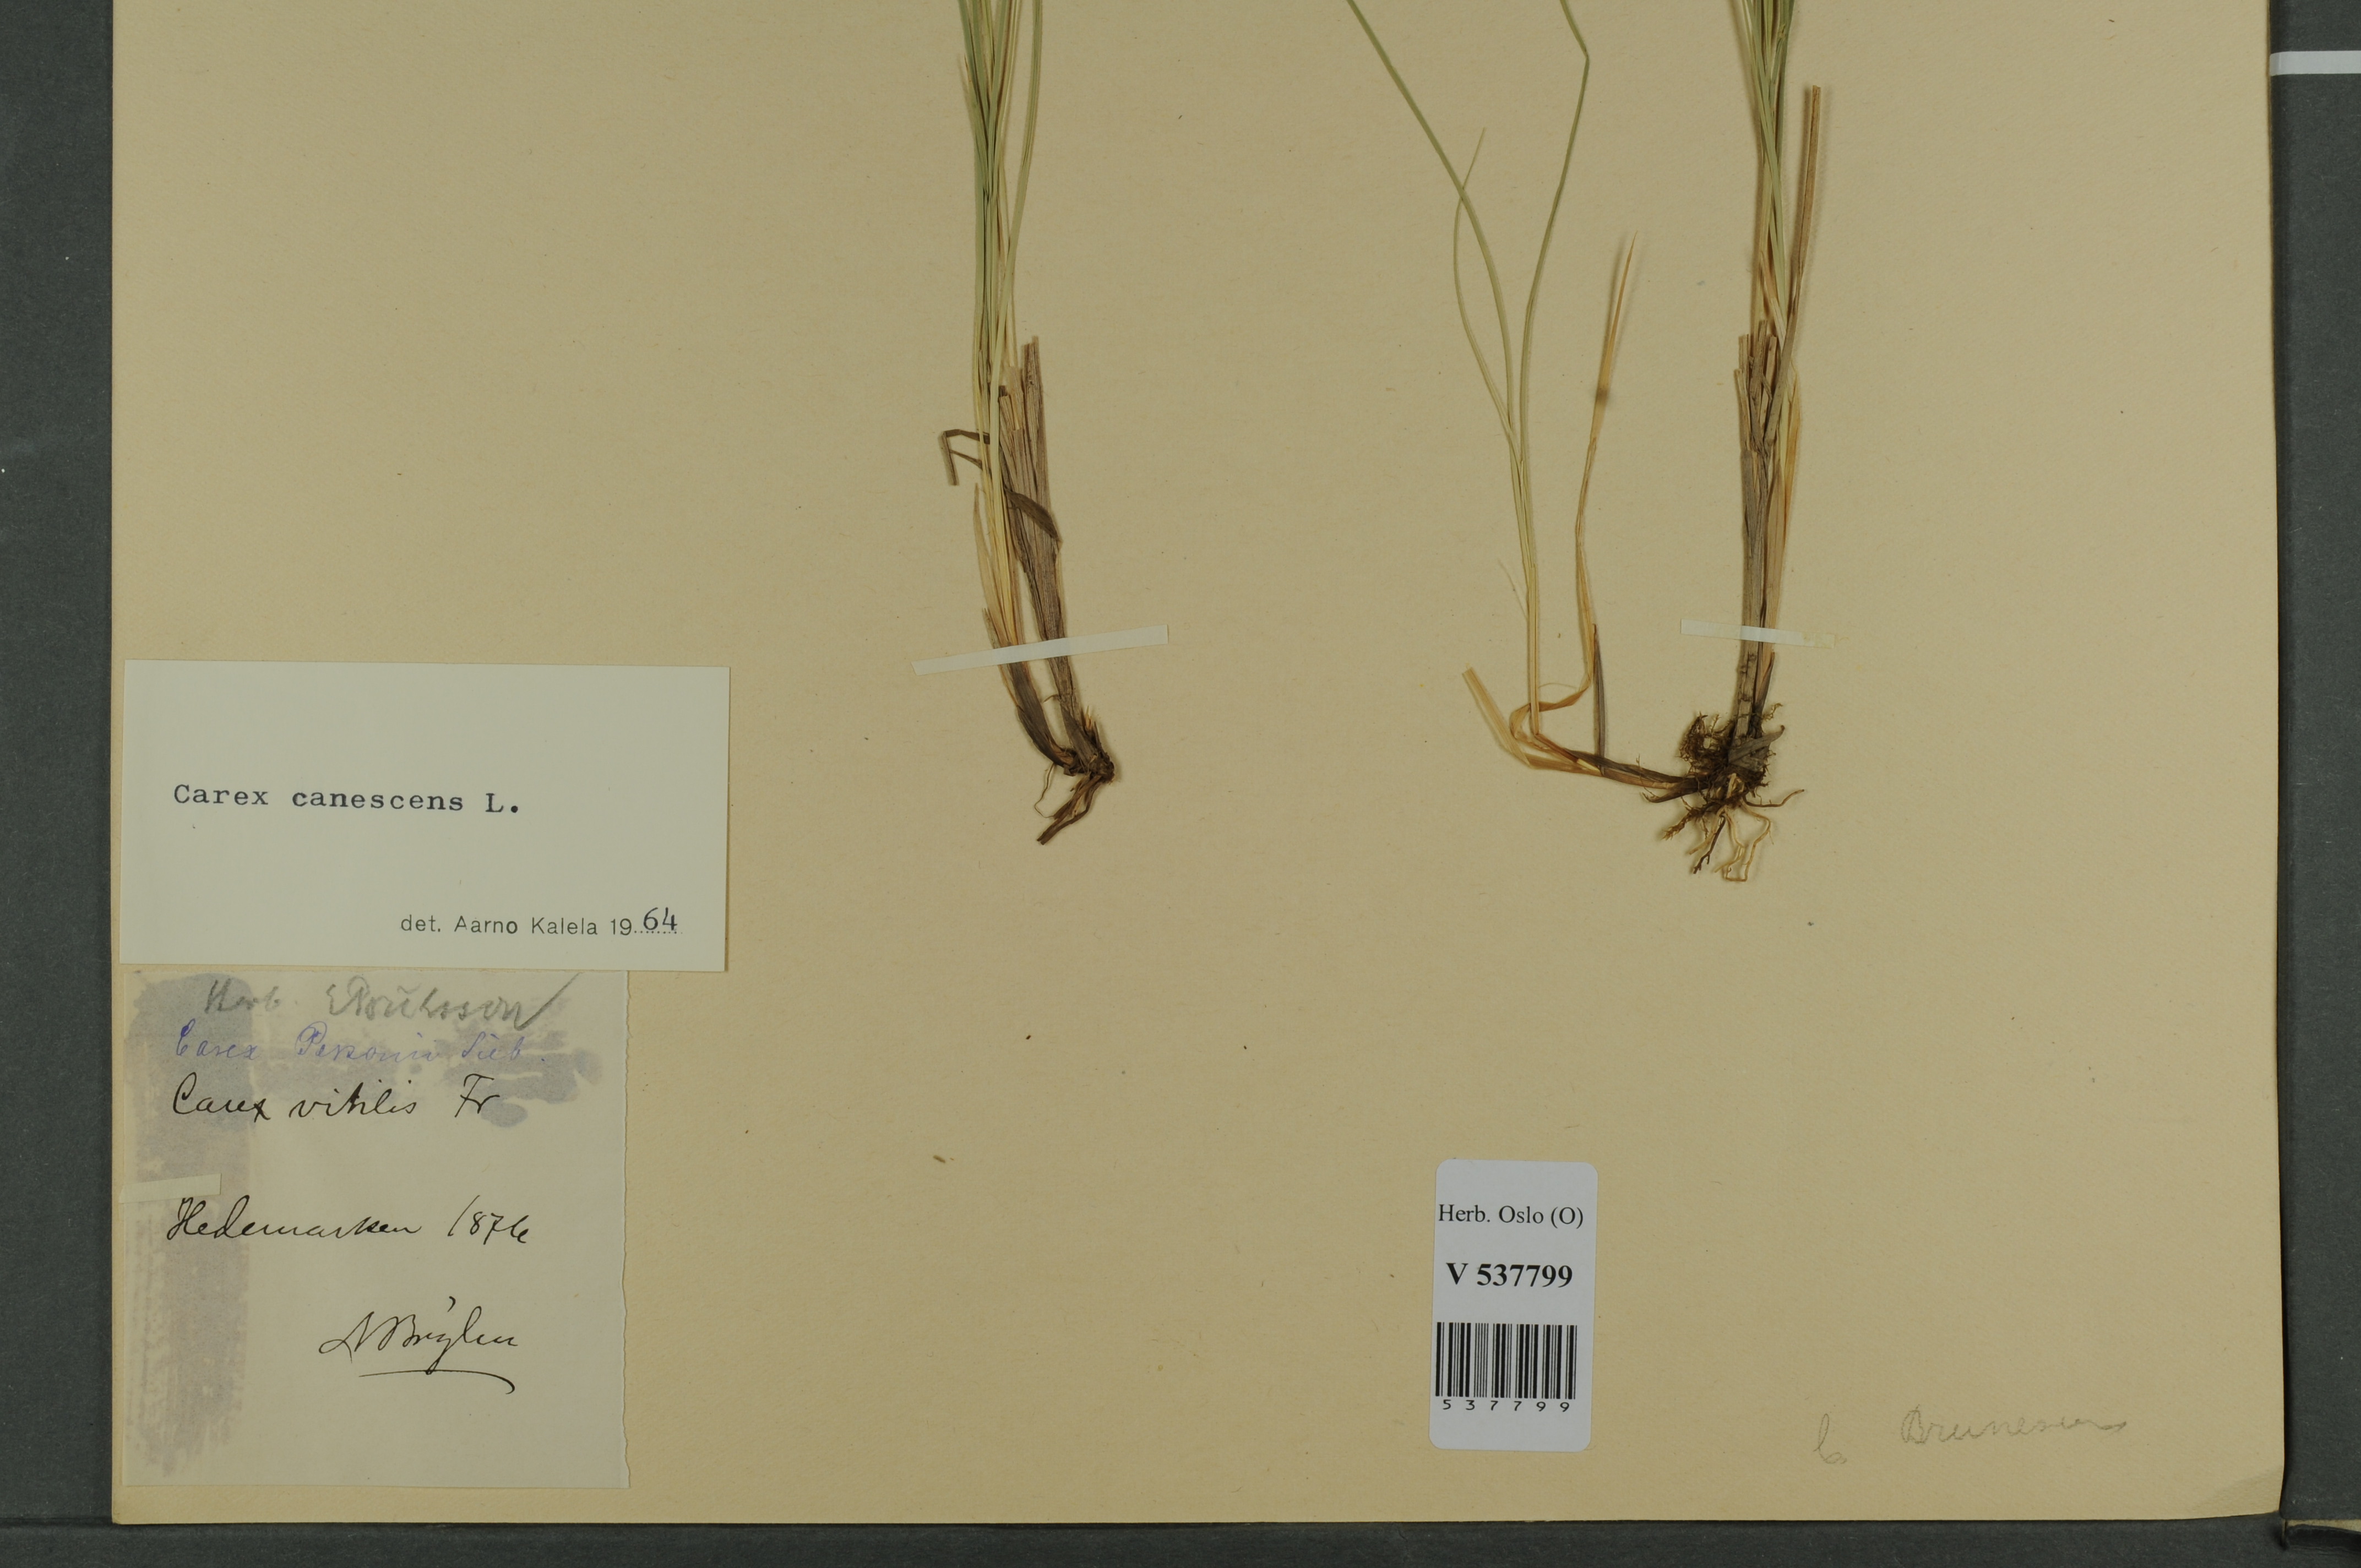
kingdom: Plantae
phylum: Tracheophyta
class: Liliopsida
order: Poales
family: Cyperaceae
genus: Carex
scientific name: Carex canescens
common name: White sedge
